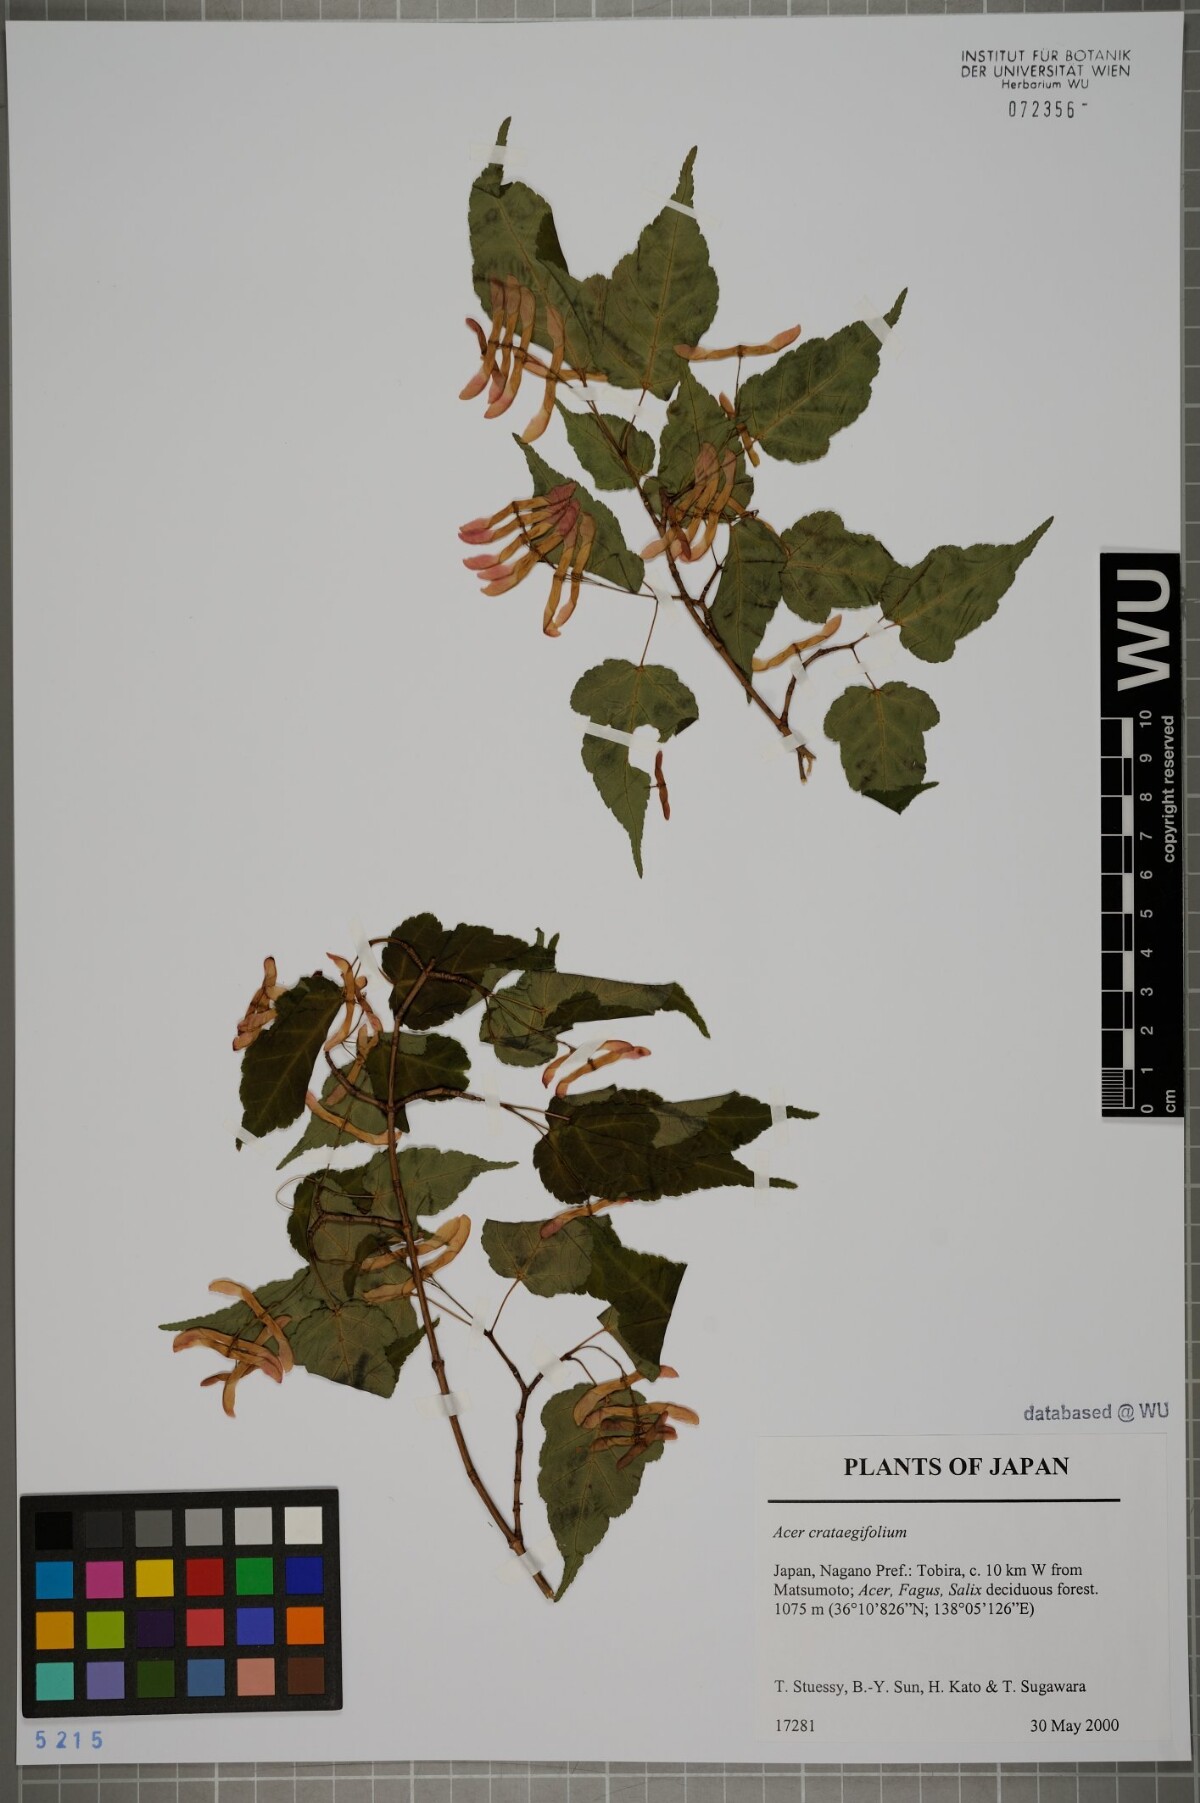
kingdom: Plantae
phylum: Tracheophyta
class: Magnoliopsida
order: Sapindales
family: Sapindaceae
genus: Acer
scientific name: Acer crataegifolium
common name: Hawthorn-leaf maple
